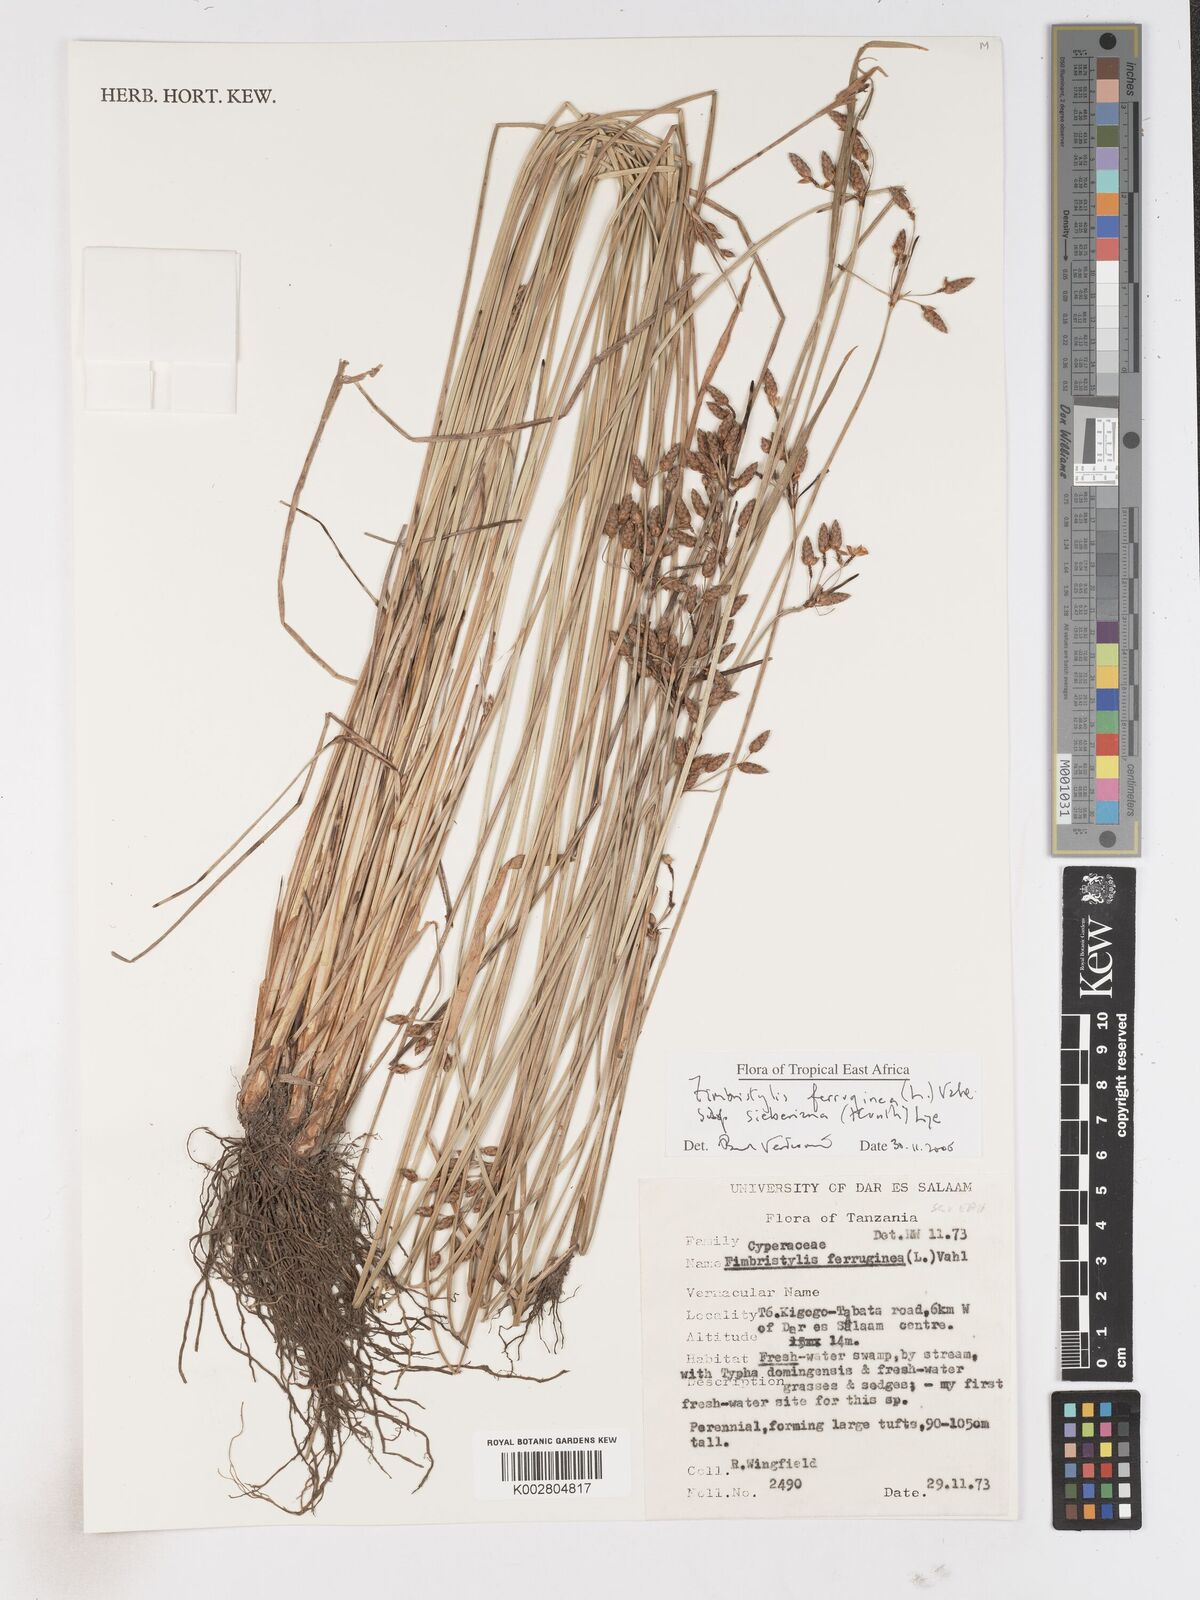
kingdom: Plantae
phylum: Tracheophyta
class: Liliopsida
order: Poales
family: Cyperaceae
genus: Fimbristylis
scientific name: Fimbristylis ferruginea
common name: West indian fimbry
